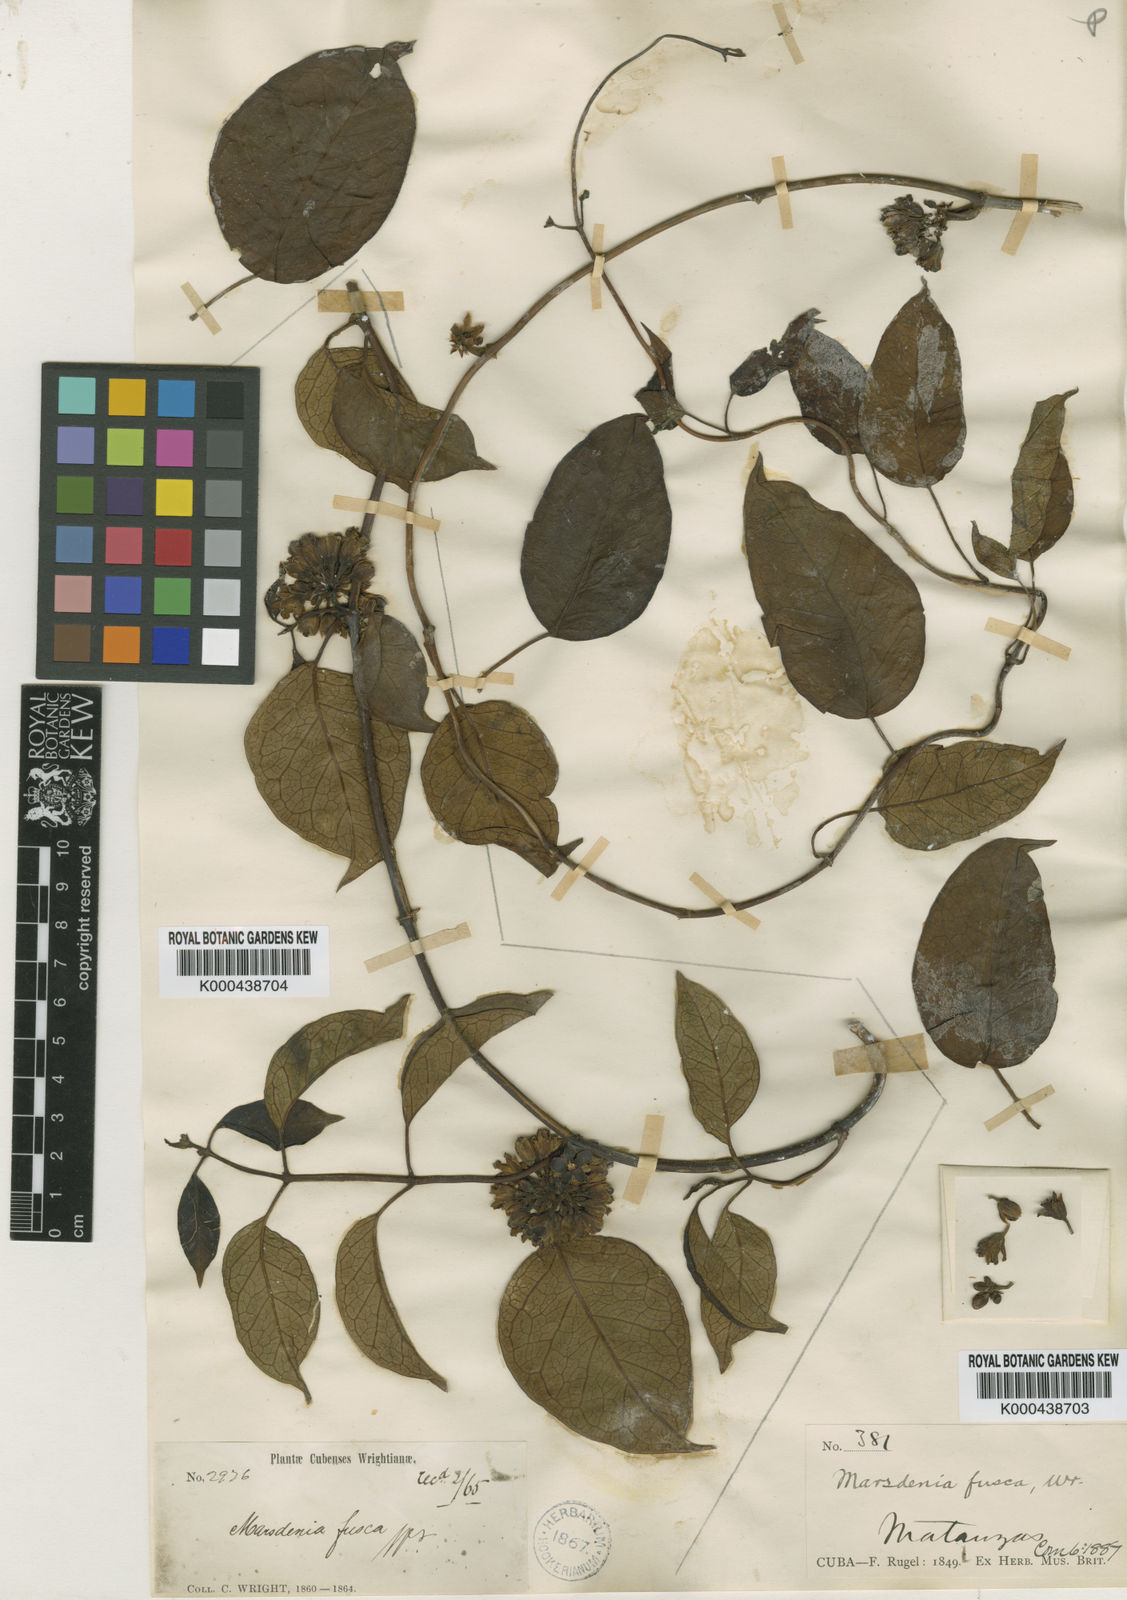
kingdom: Plantae
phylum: Tracheophyta
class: Magnoliopsida
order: Gentianales
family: Apocynaceae
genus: Ruehssia
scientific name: Ruehssia fusca
